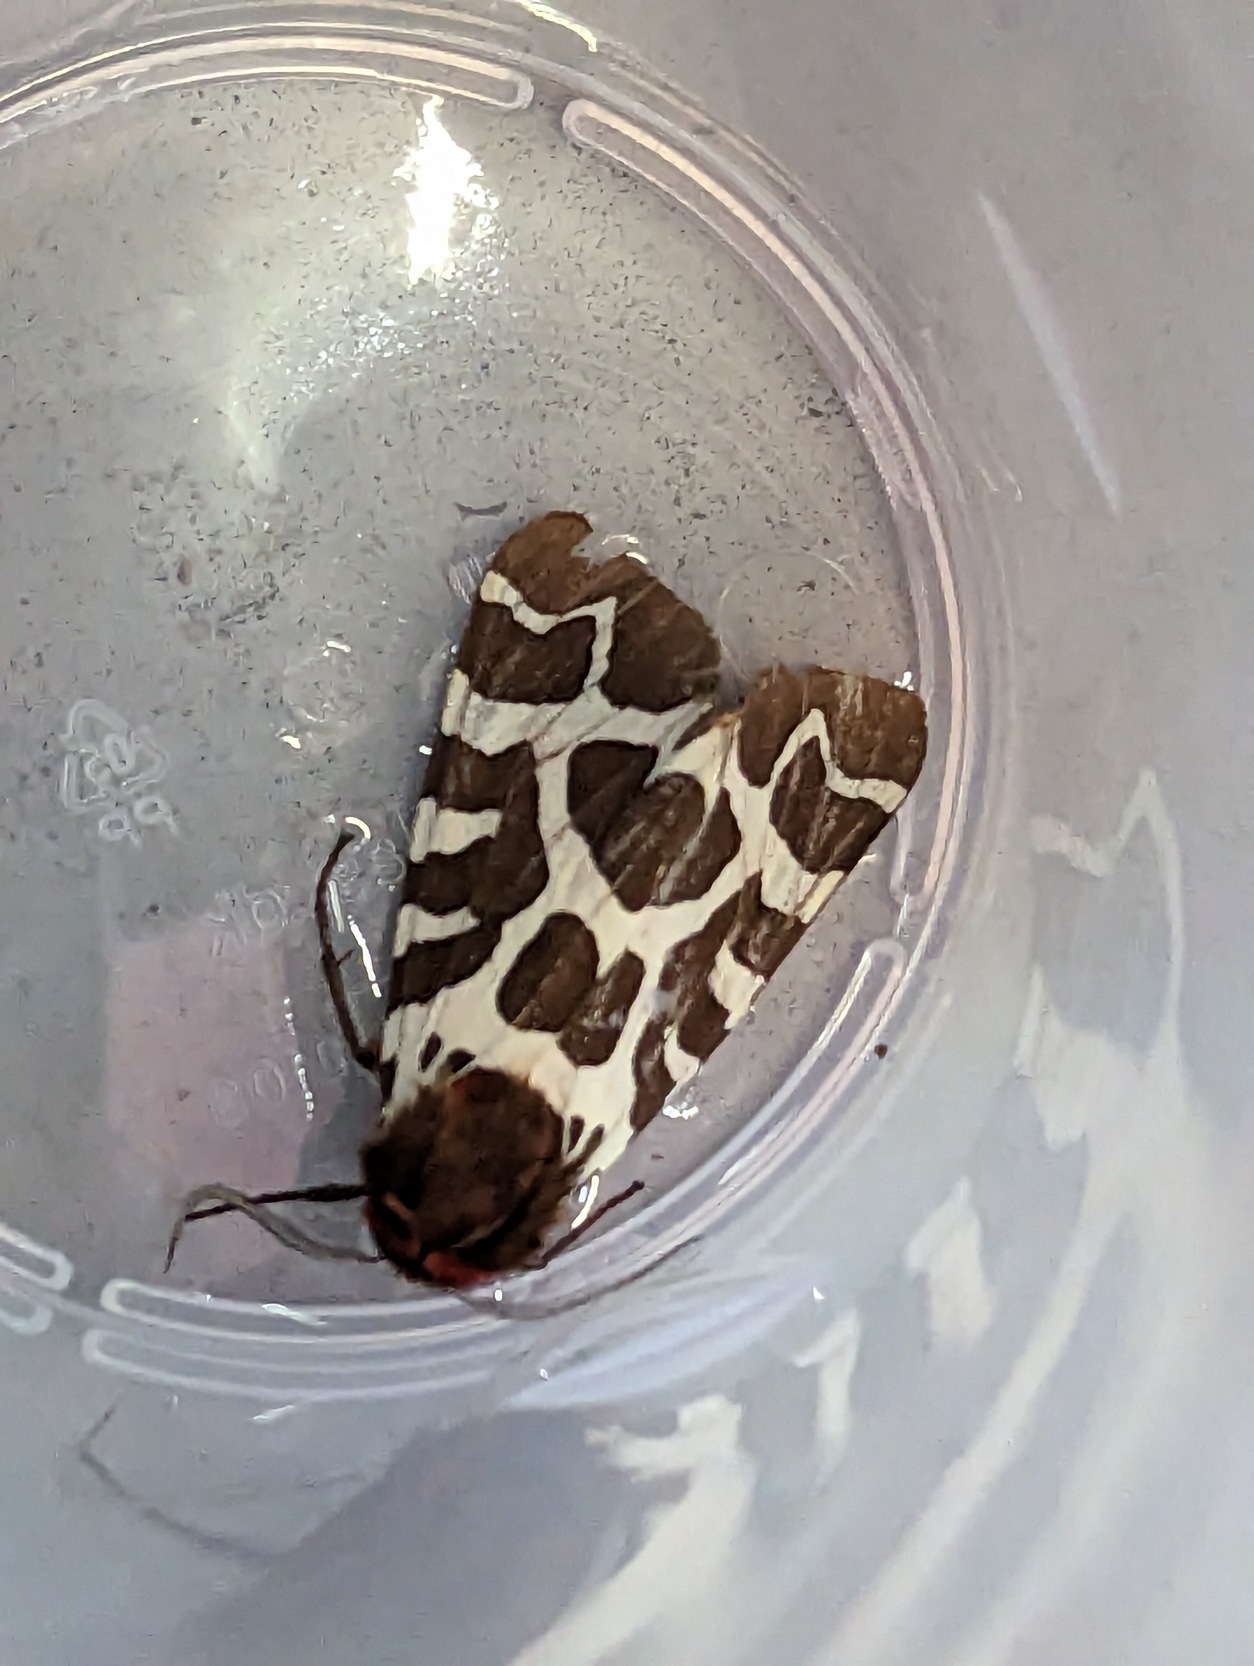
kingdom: Animalia
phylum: Arthropoda
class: Insecta
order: Lepidoptera
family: Erebidae
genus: Arctia
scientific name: Arctia caja
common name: Brun bjørn
